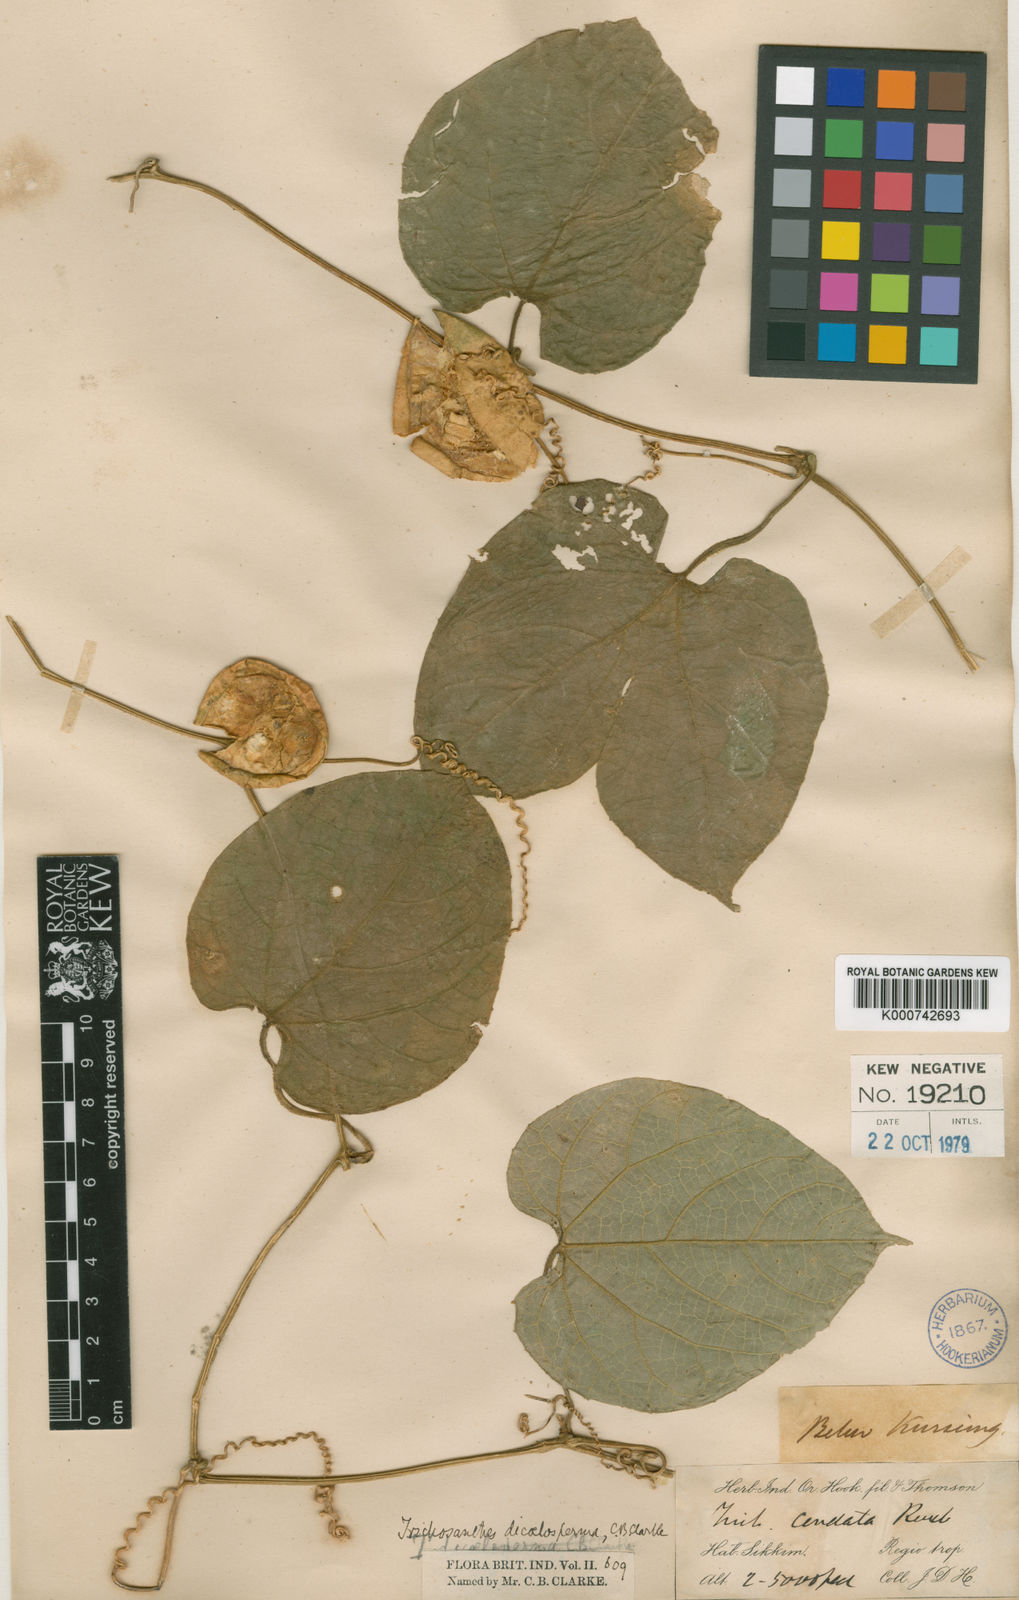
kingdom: Plantae
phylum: Tracheophyta
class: Magnoliopsida
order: Cucurbitales
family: Cucurbitaceae
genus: Trichosanthes
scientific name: Trichosanthes
